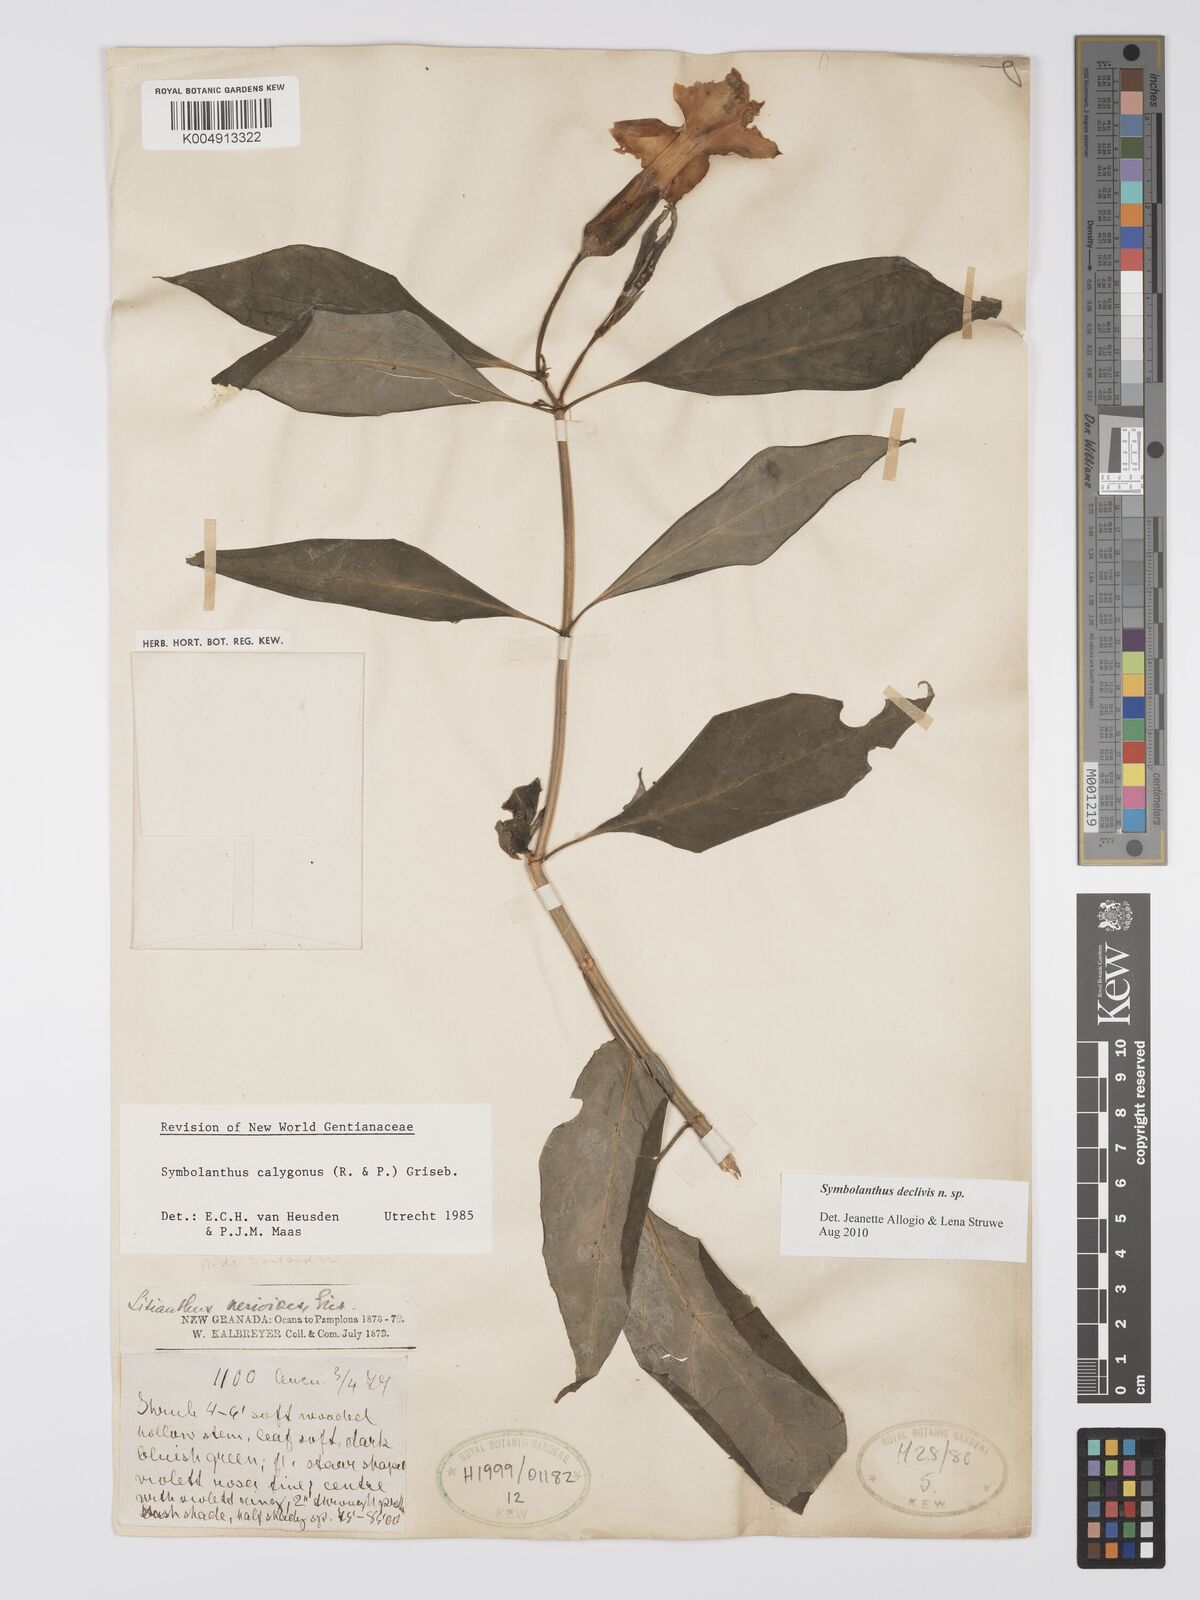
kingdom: Plantae
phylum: Tracheophyta
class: Magnoliopsida
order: Gentianales
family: Gentianaceae
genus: Symbolanthus
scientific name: Symbolanthus
